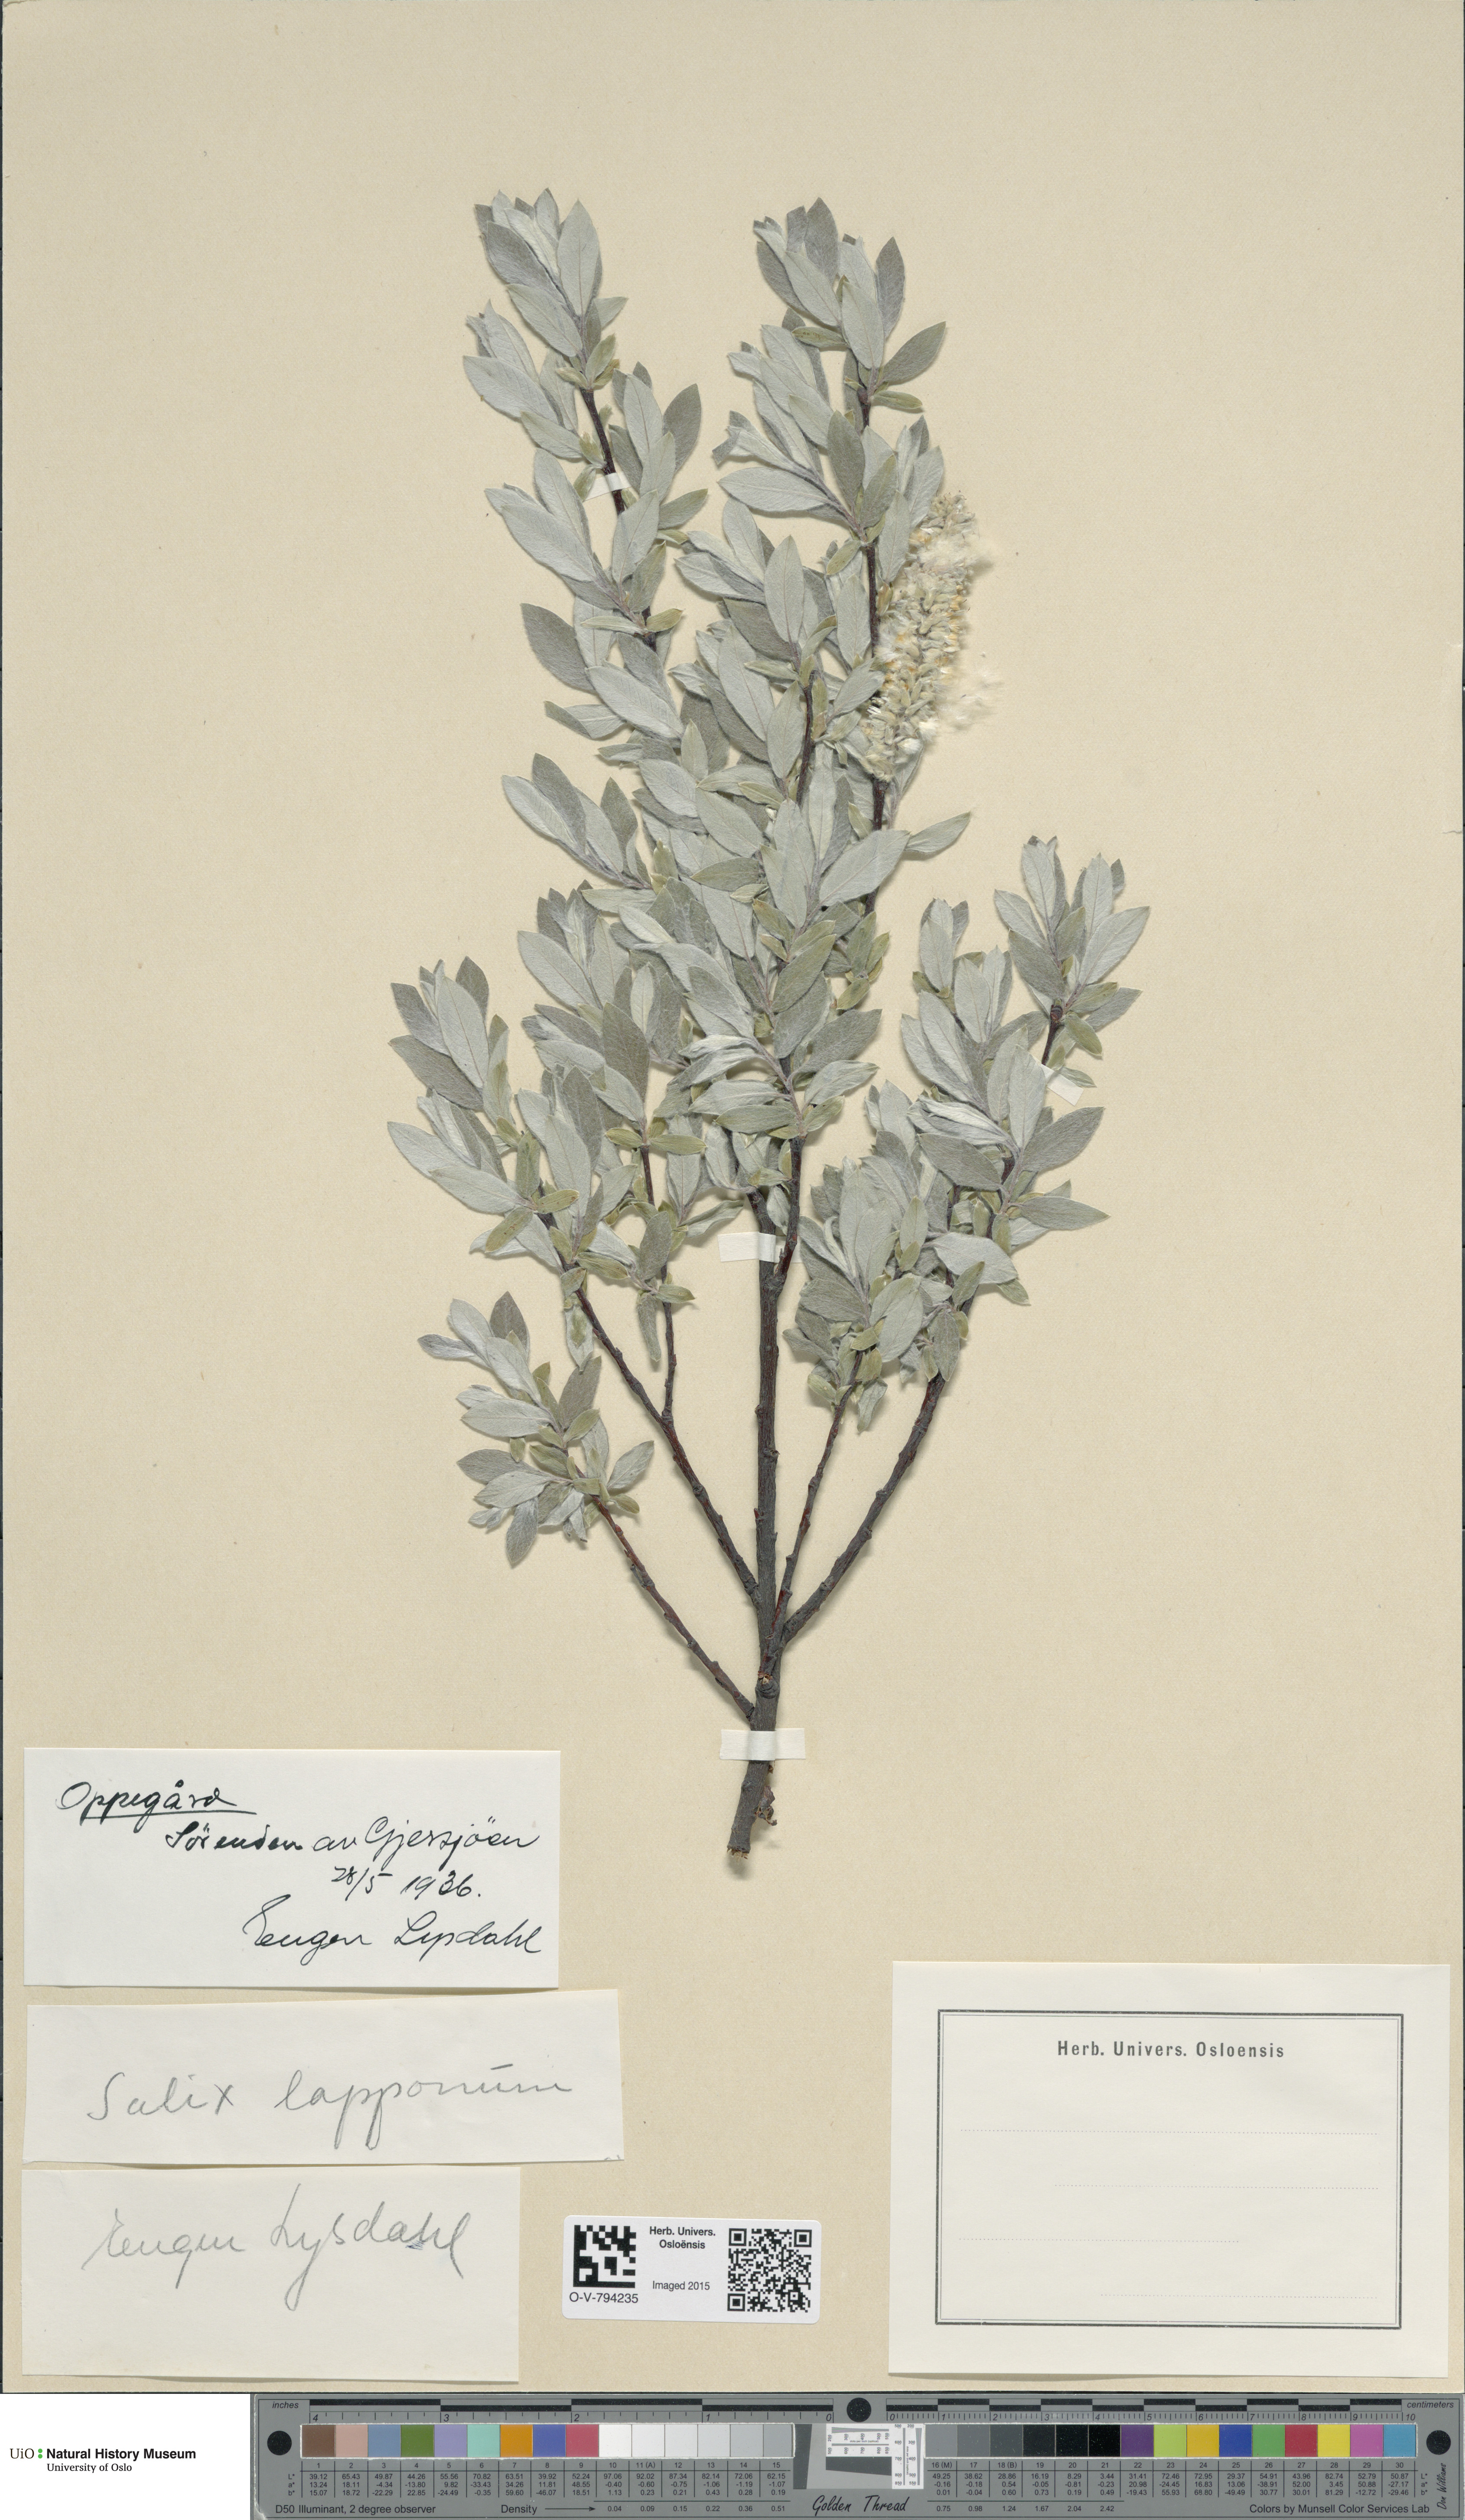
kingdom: Plantae
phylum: Tracheophyta
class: Magnoliopsida
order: Malpighiales
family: Salicaceae
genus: Salix
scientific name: Salix lapponum
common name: Downy willow
